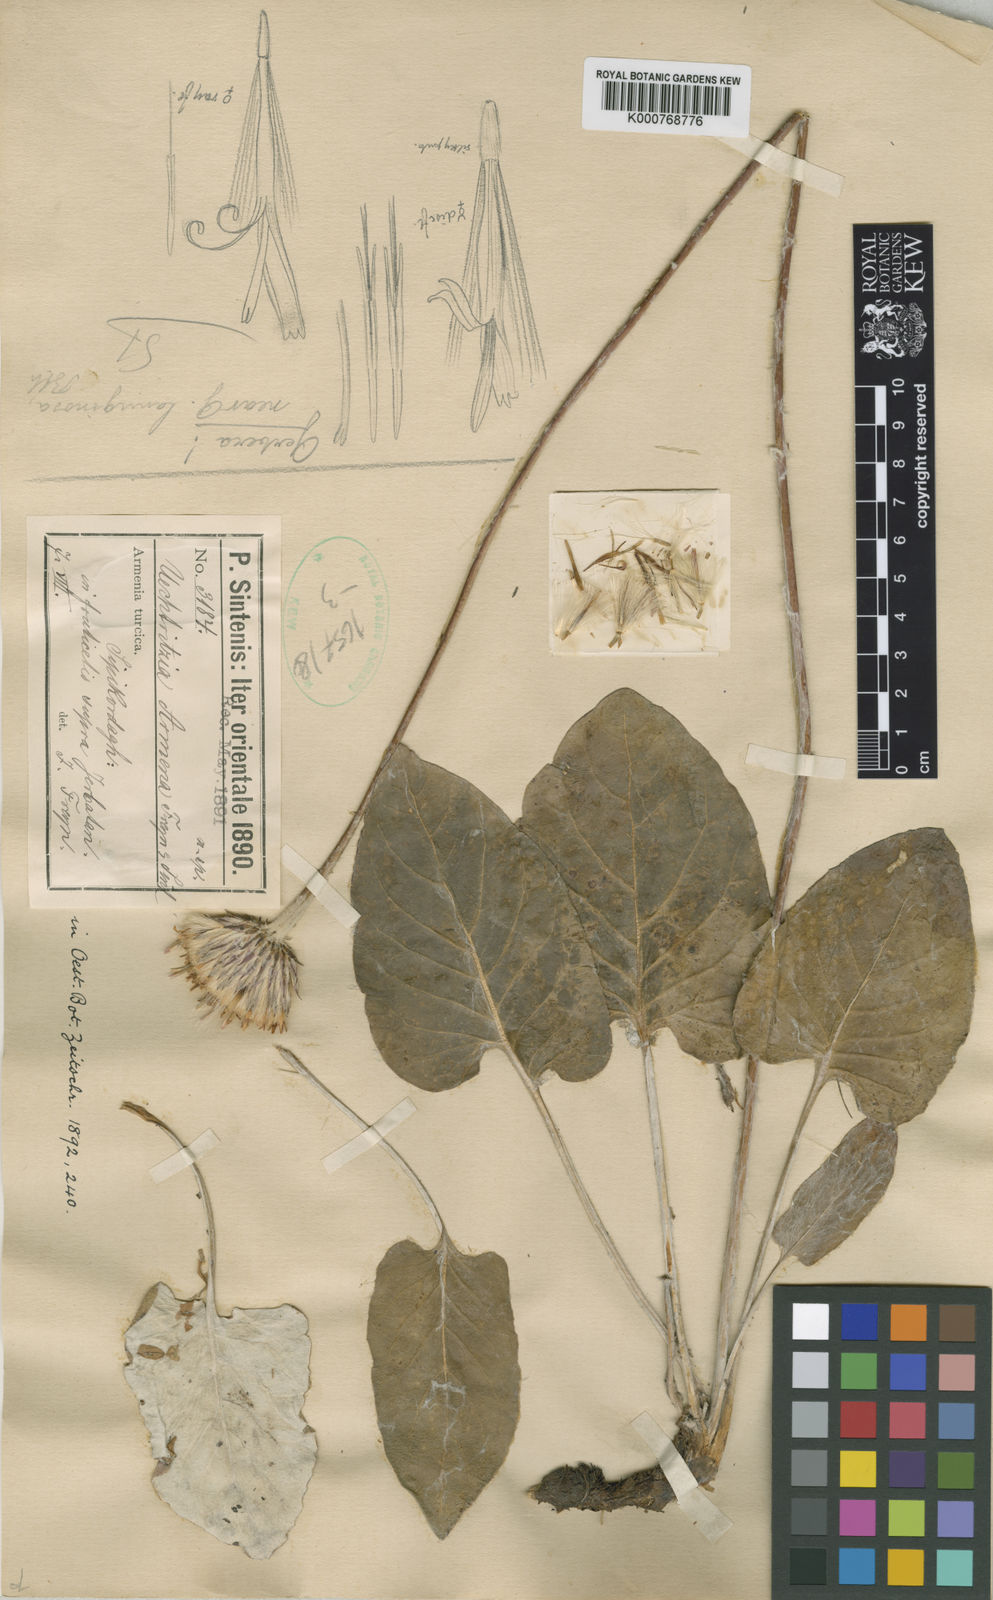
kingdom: Plantae
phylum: Tracheophyta
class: Magnoliopsida
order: Asterales
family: Asteraceae
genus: Oreoseris
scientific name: Oreoseris armena
